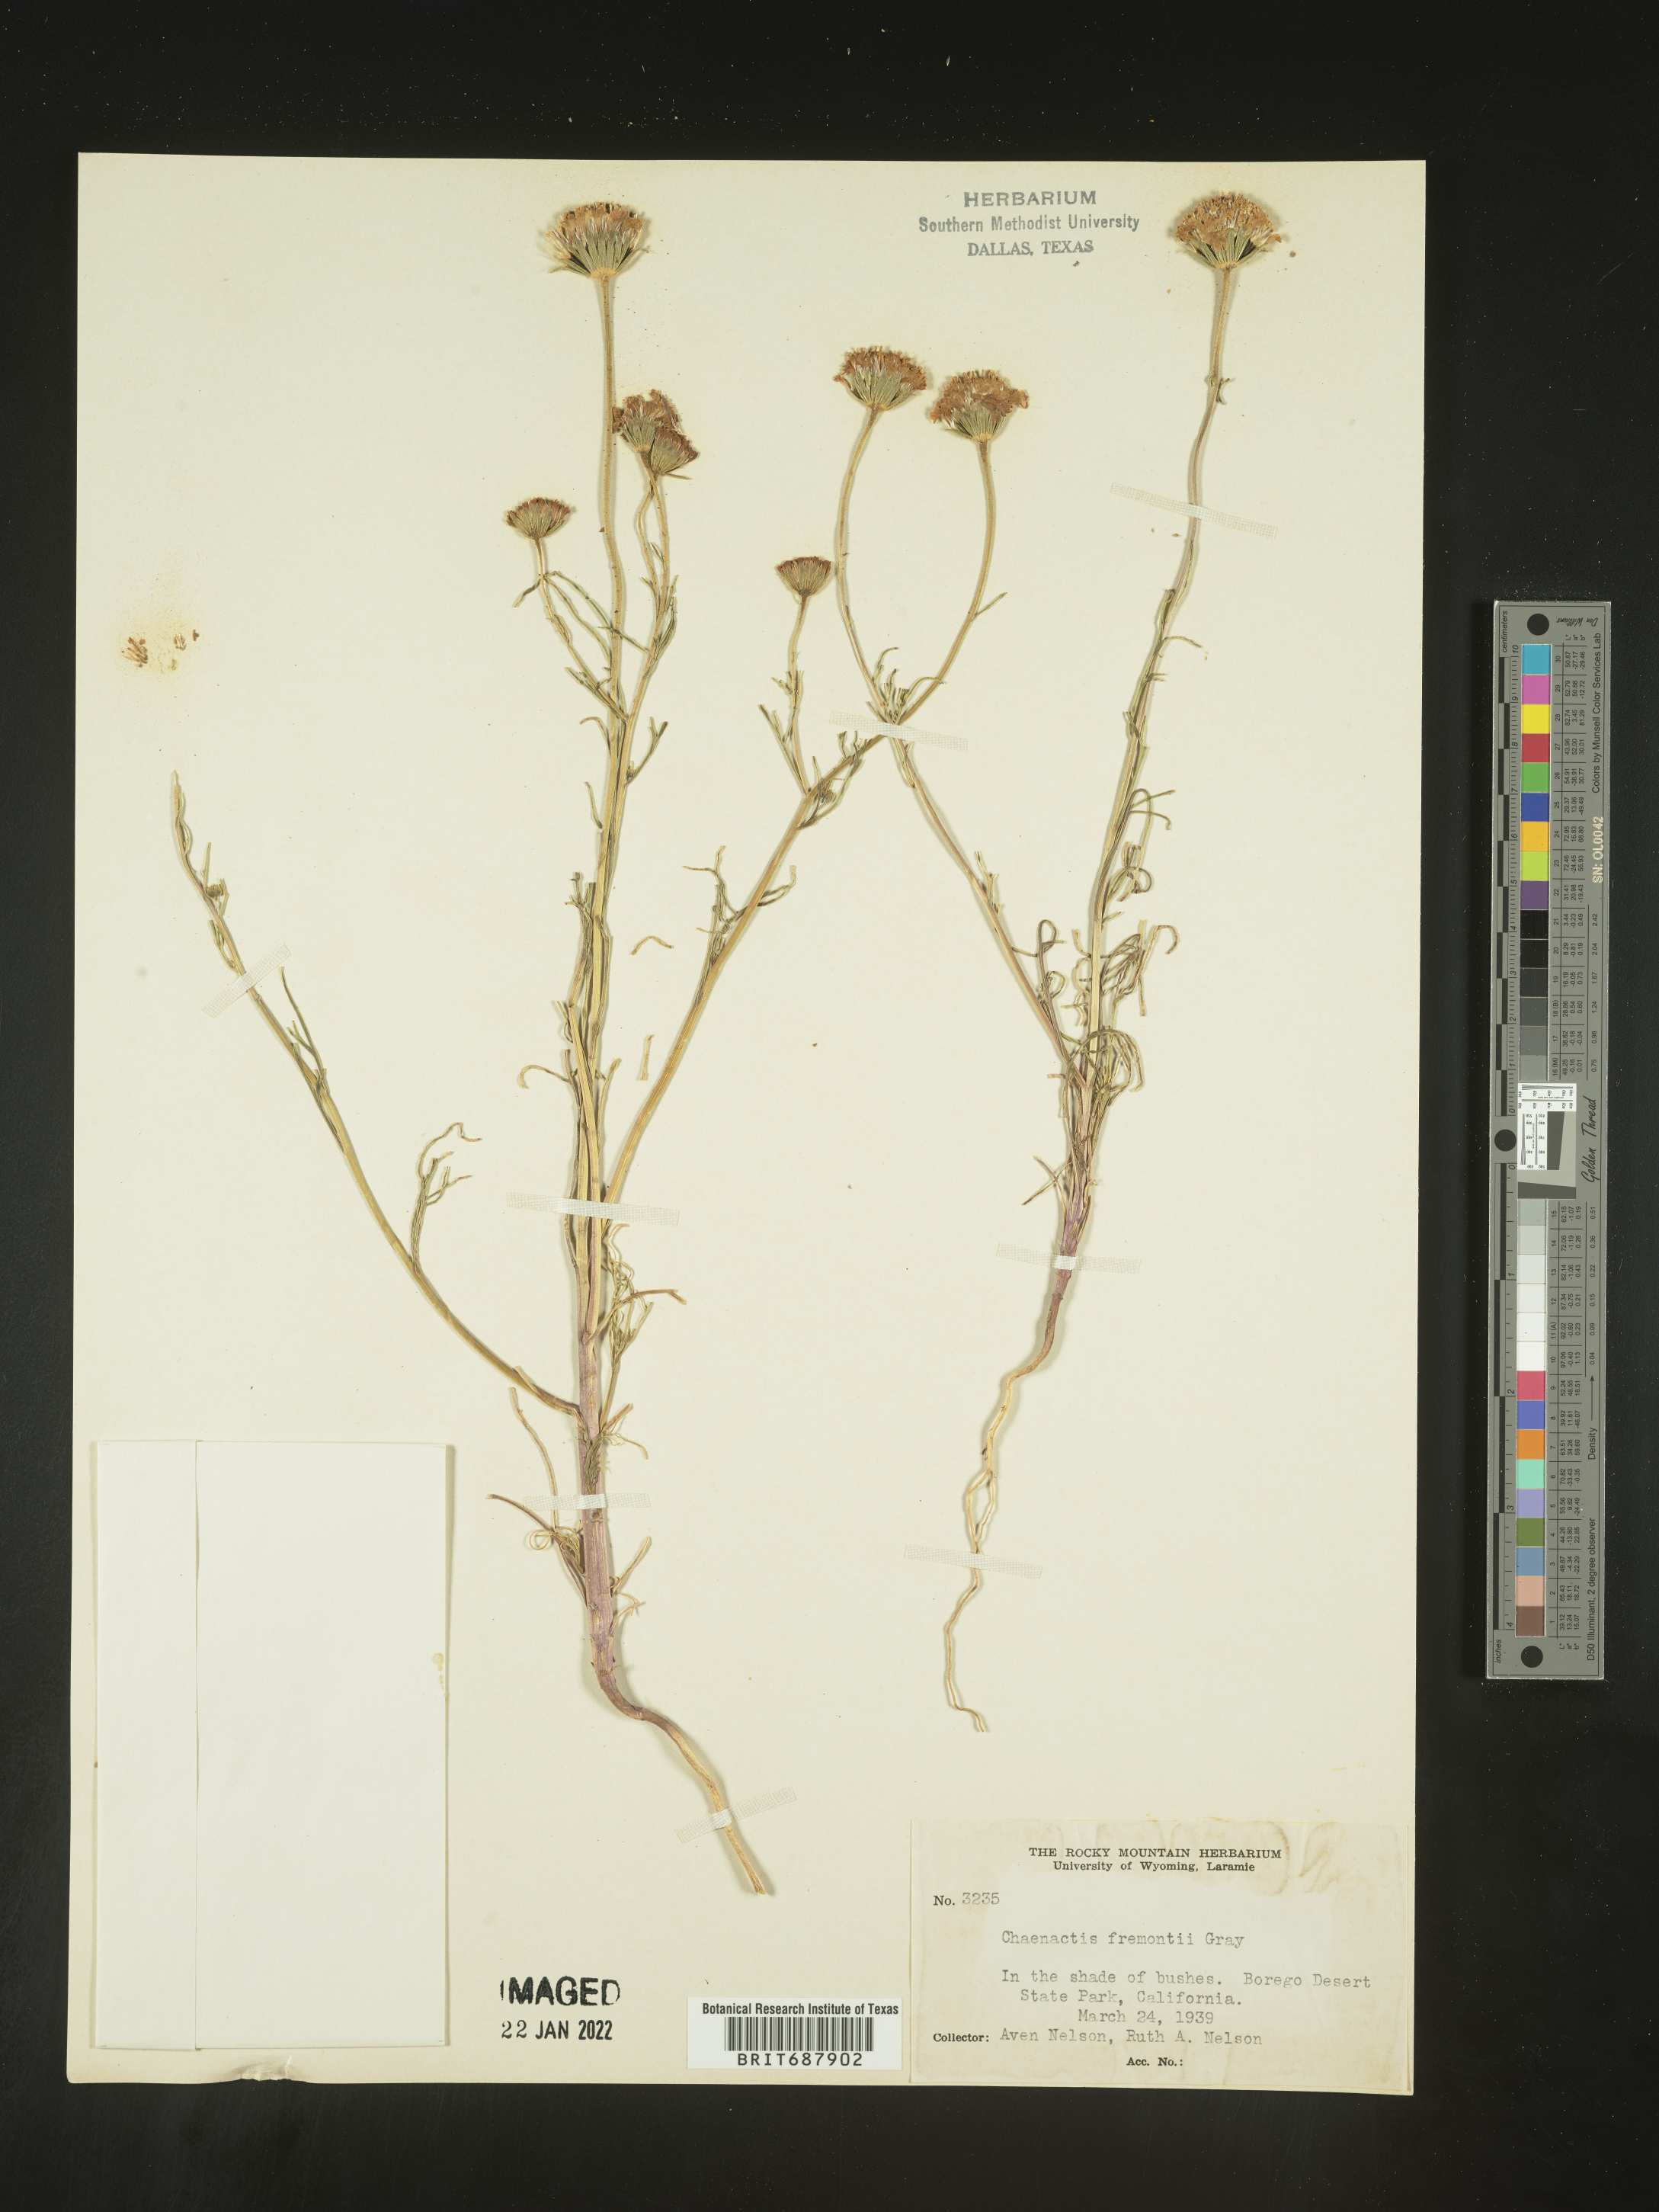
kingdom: Plantae
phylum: Tracheophyta
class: Magnoliopsida
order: Asterales
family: Asteraceae
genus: Chaenactis
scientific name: Chaenactis fremontii
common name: Fremont pincushion
